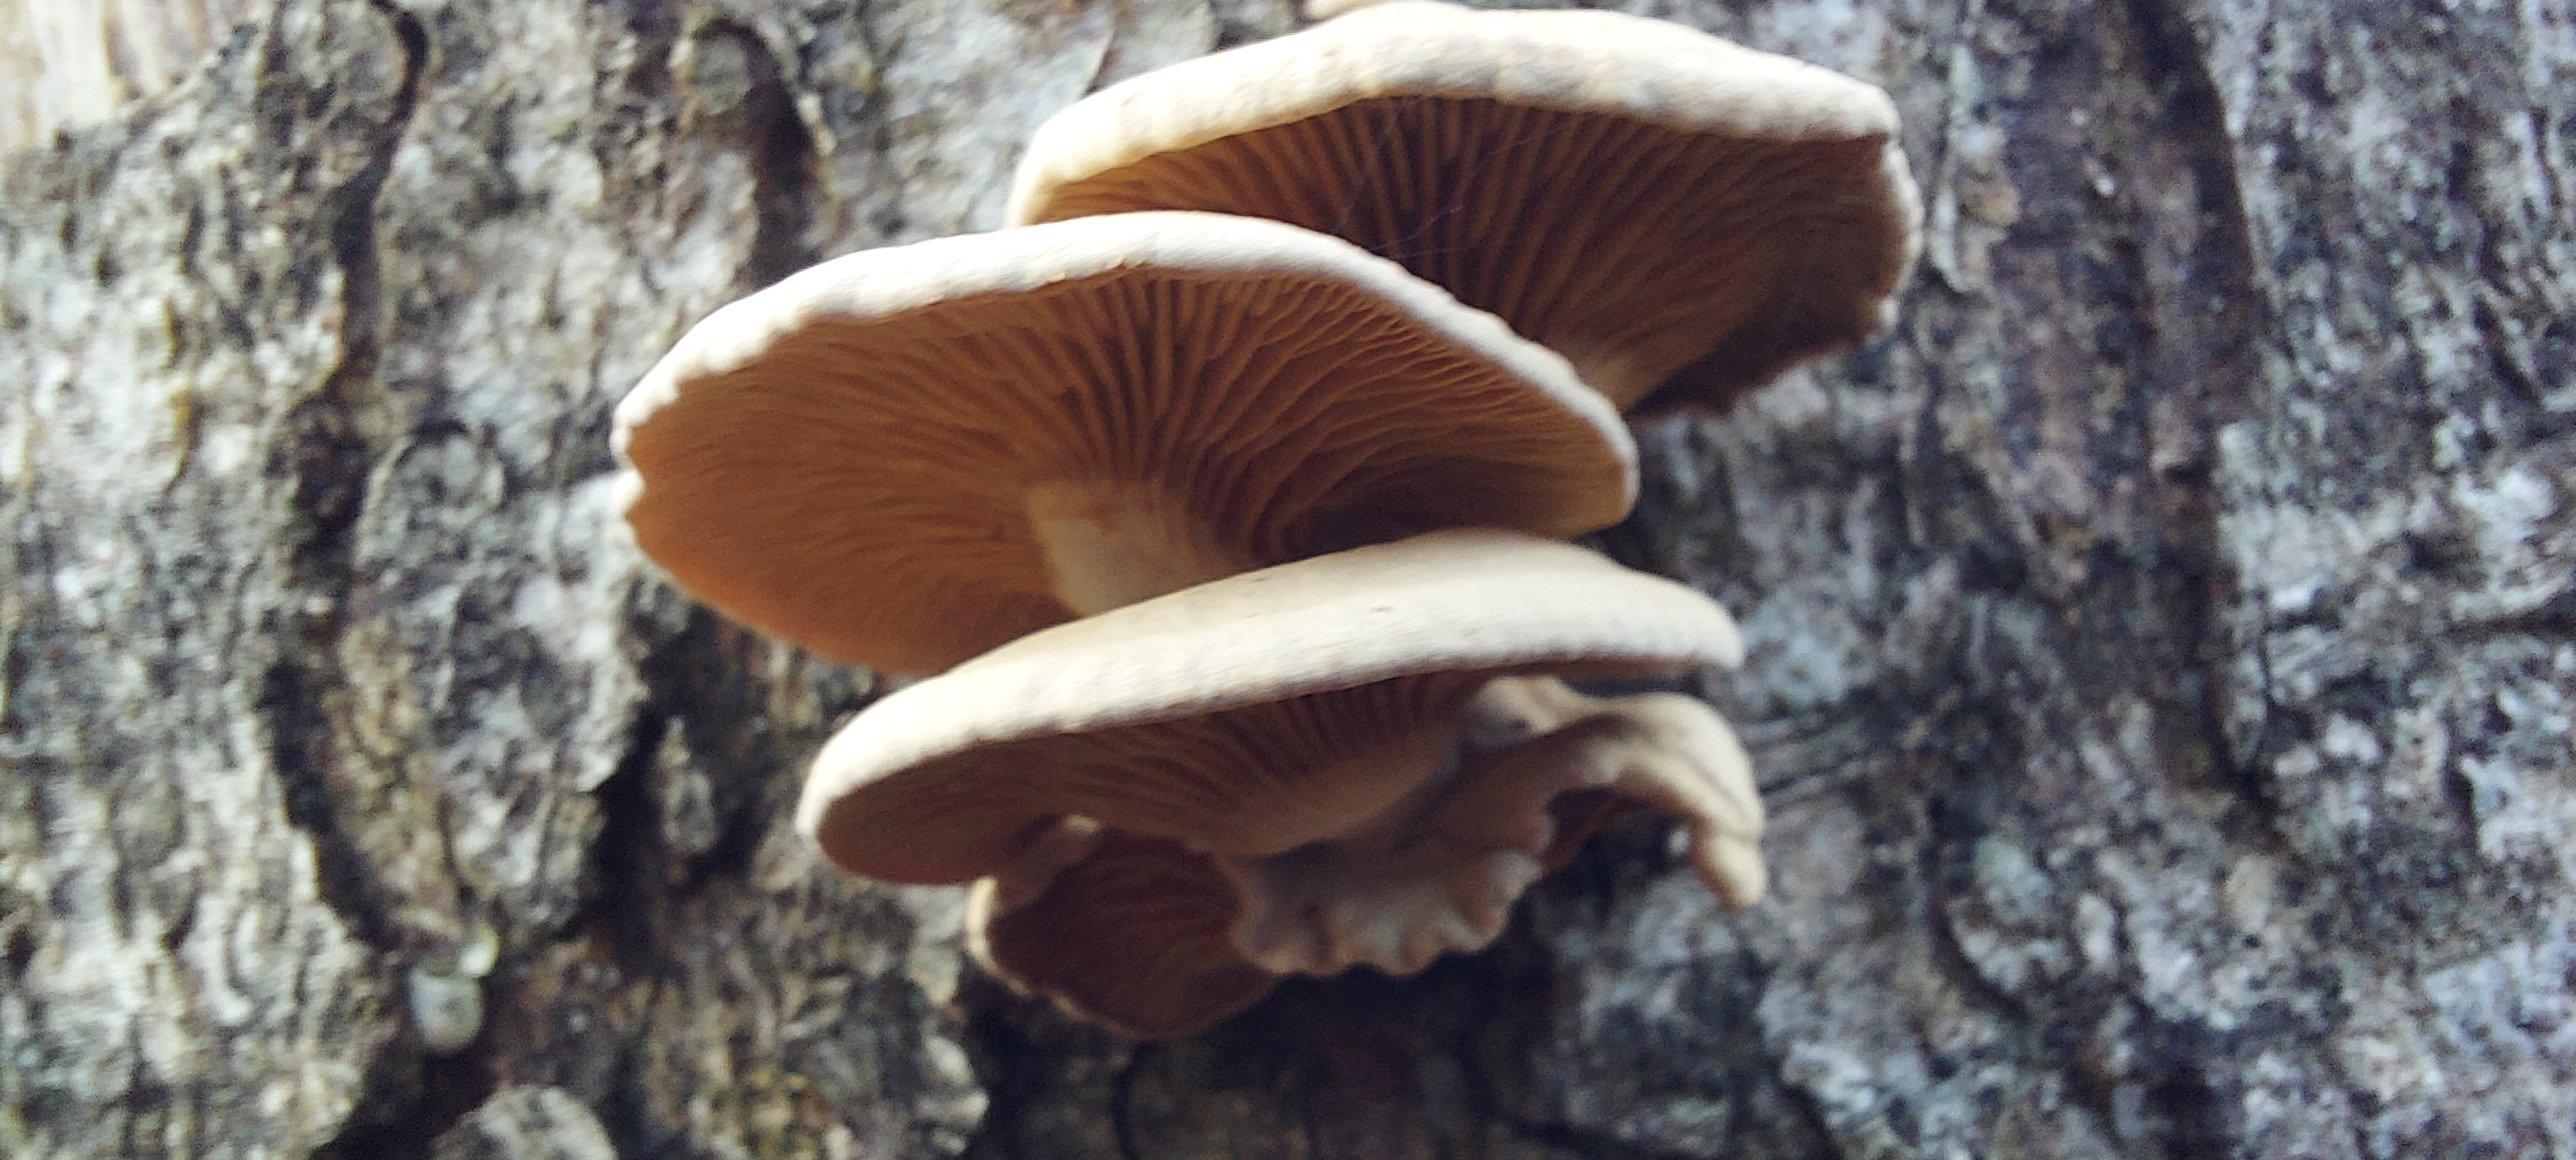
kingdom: Fungi
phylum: Basidiomycota
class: Agaricomycetes
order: Agaricales
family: Mycenaceae
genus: Panellus
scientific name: Panellus stipticus
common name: kliddet epaulethat
